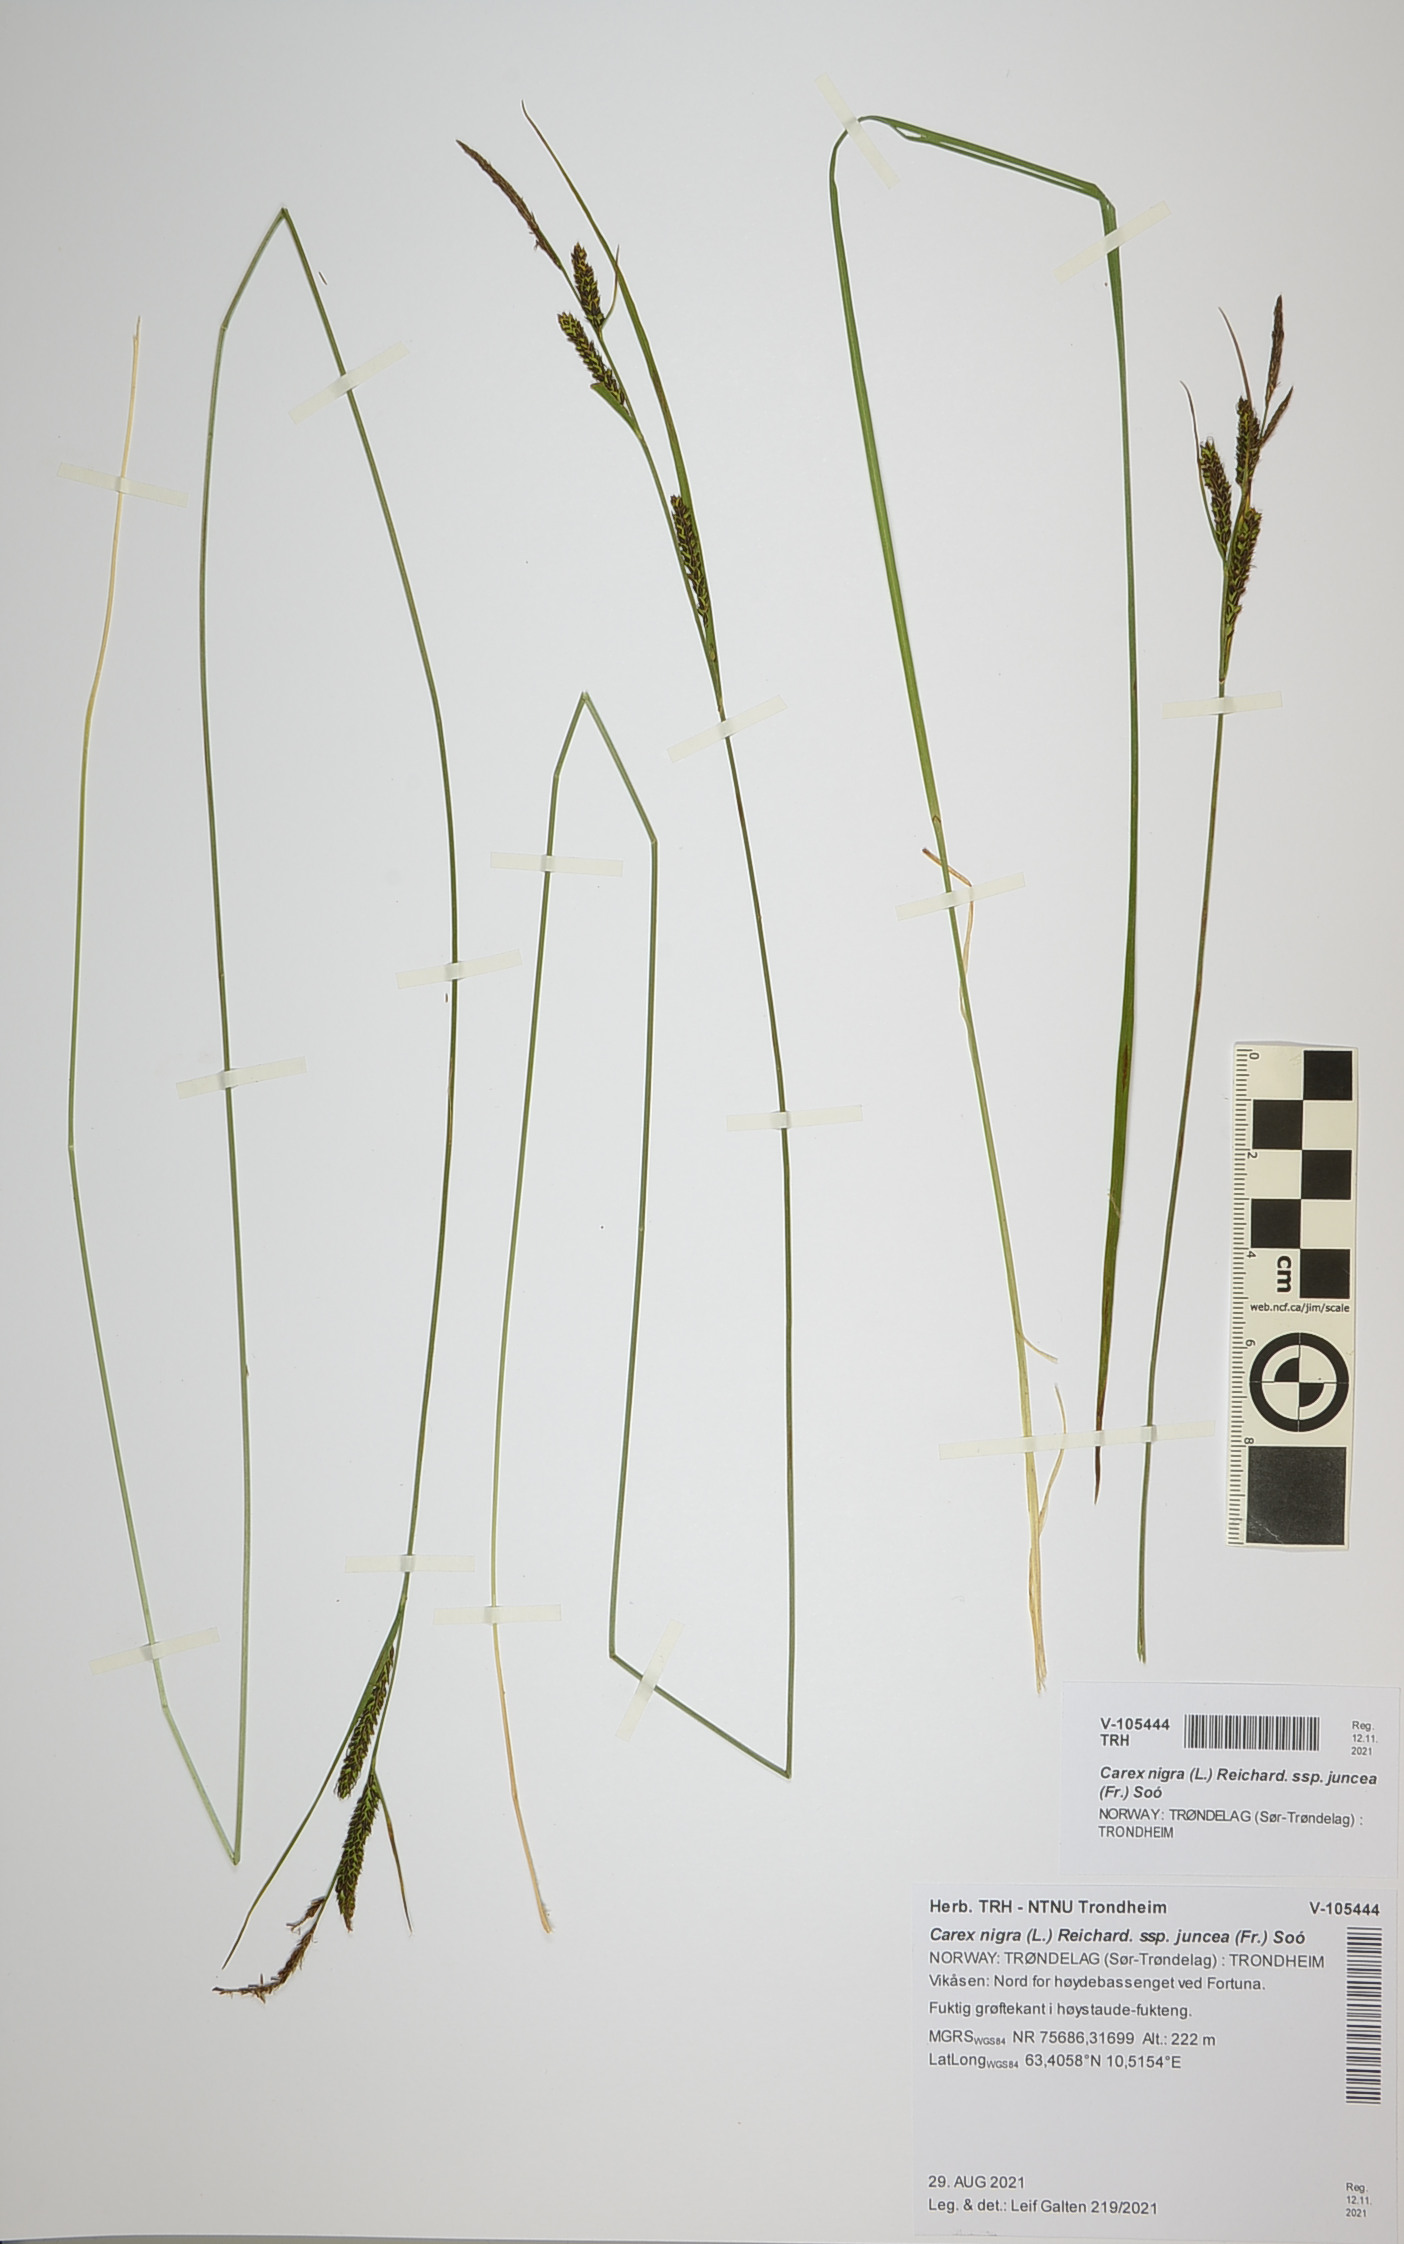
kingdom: Plantae
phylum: Tracheophyta
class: Liliopsida
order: Poales
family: Cyperaceae
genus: Carex
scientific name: Carex nigra
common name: Common sedge
